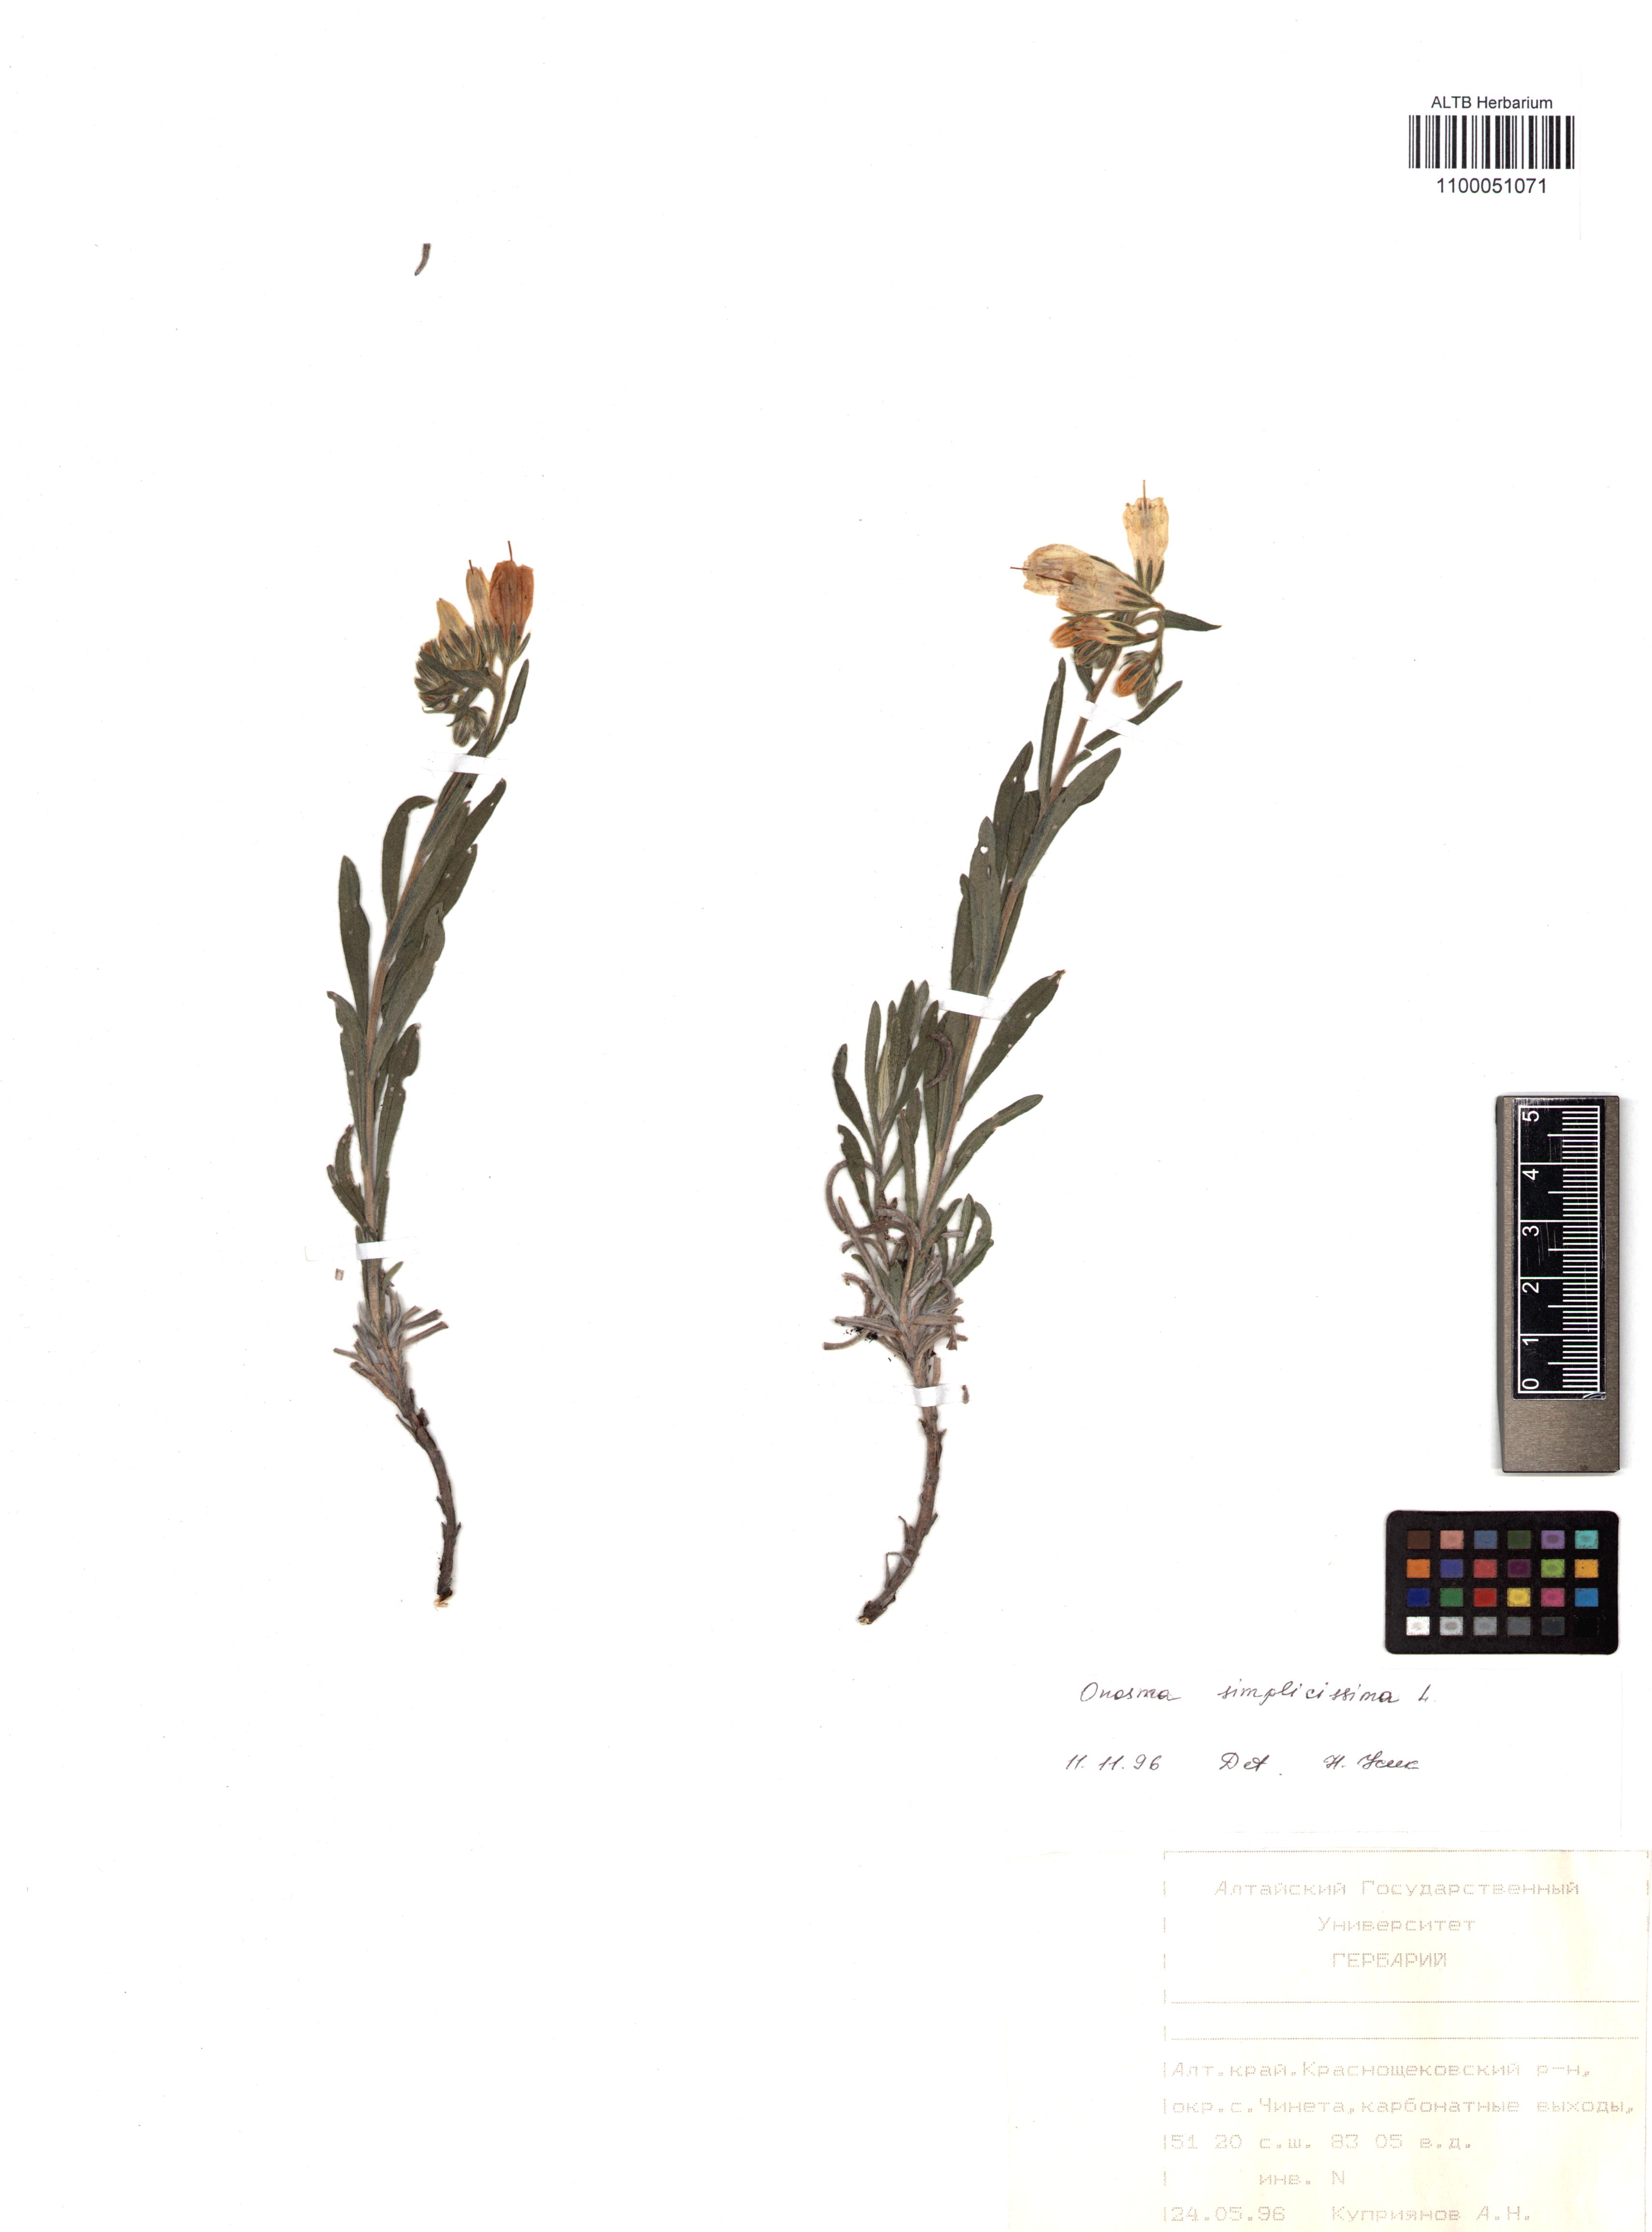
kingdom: Plantae
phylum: Tracheophyta
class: Magnoliopsida
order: Boraginales
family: Boraginaceae
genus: Onosma
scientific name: Onosma simplicissima
